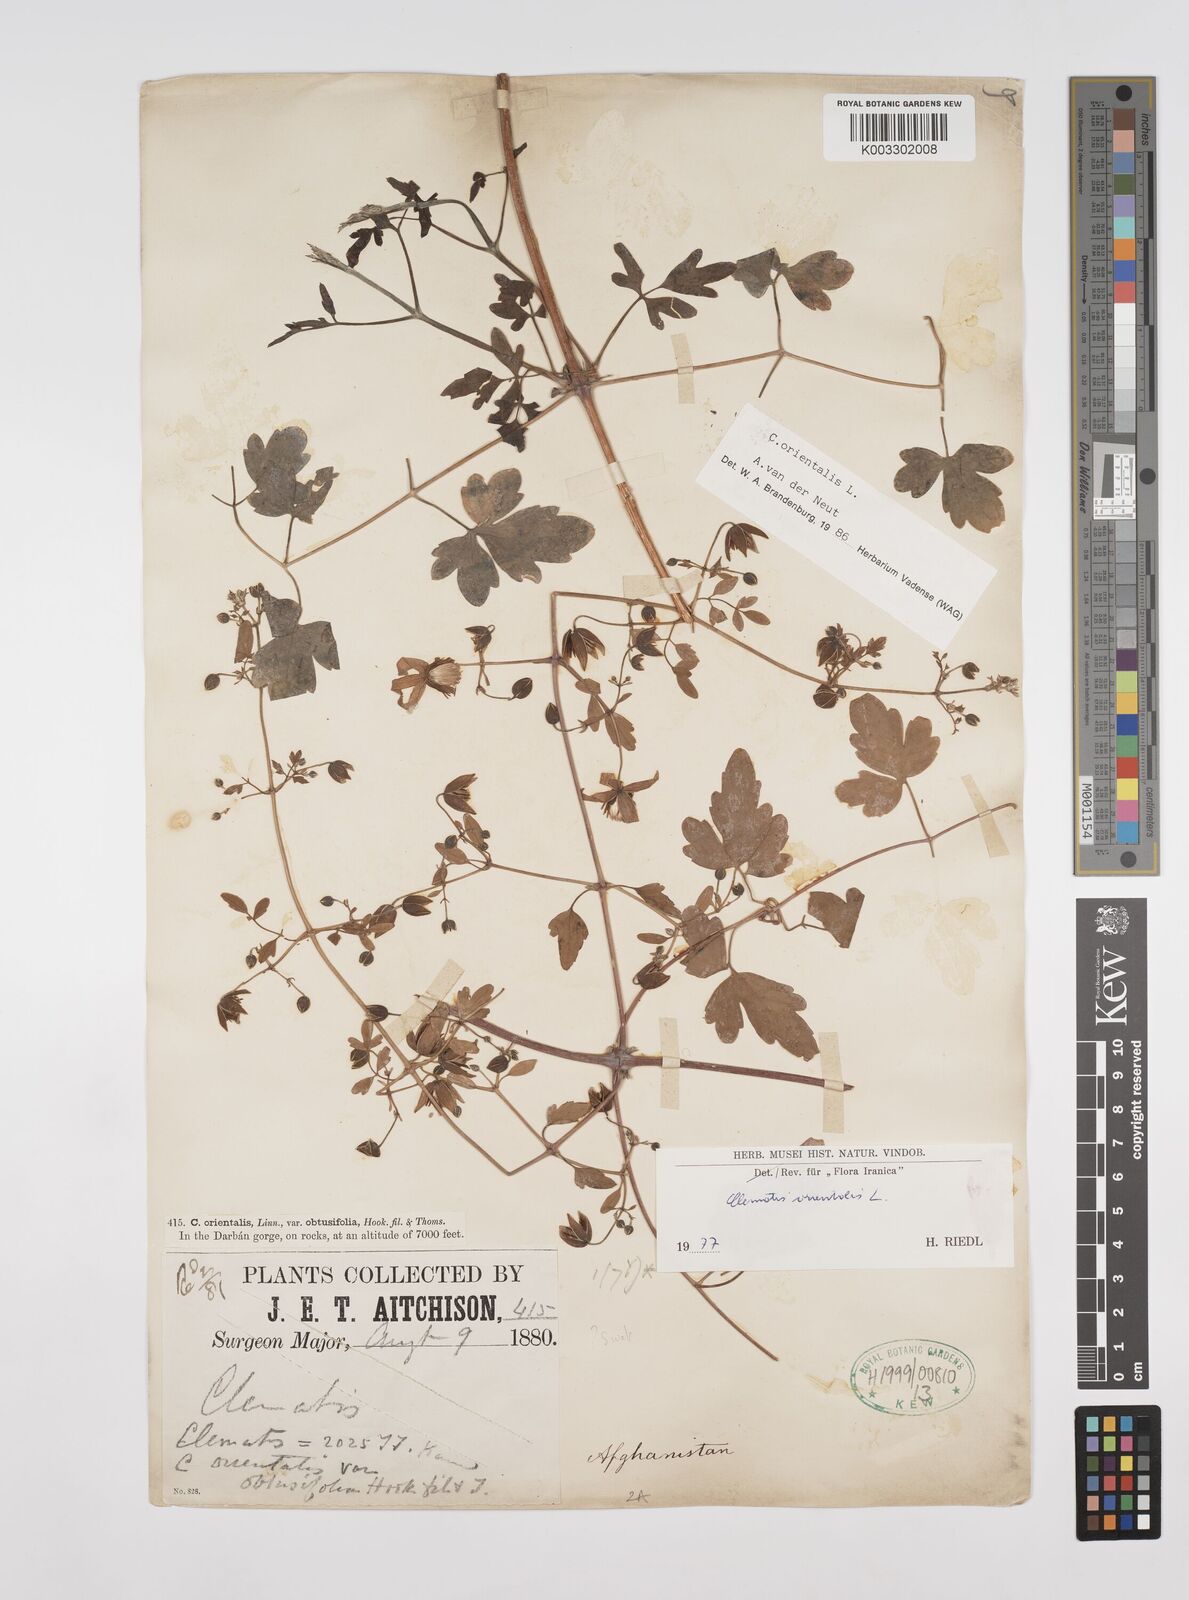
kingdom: Plantae
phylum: Tracheophyta
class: Magnoliopsida
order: Ranunculales
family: Ranunculaceae
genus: Clematis
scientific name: Clematis orientalis
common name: Oriental virgin's-bower
